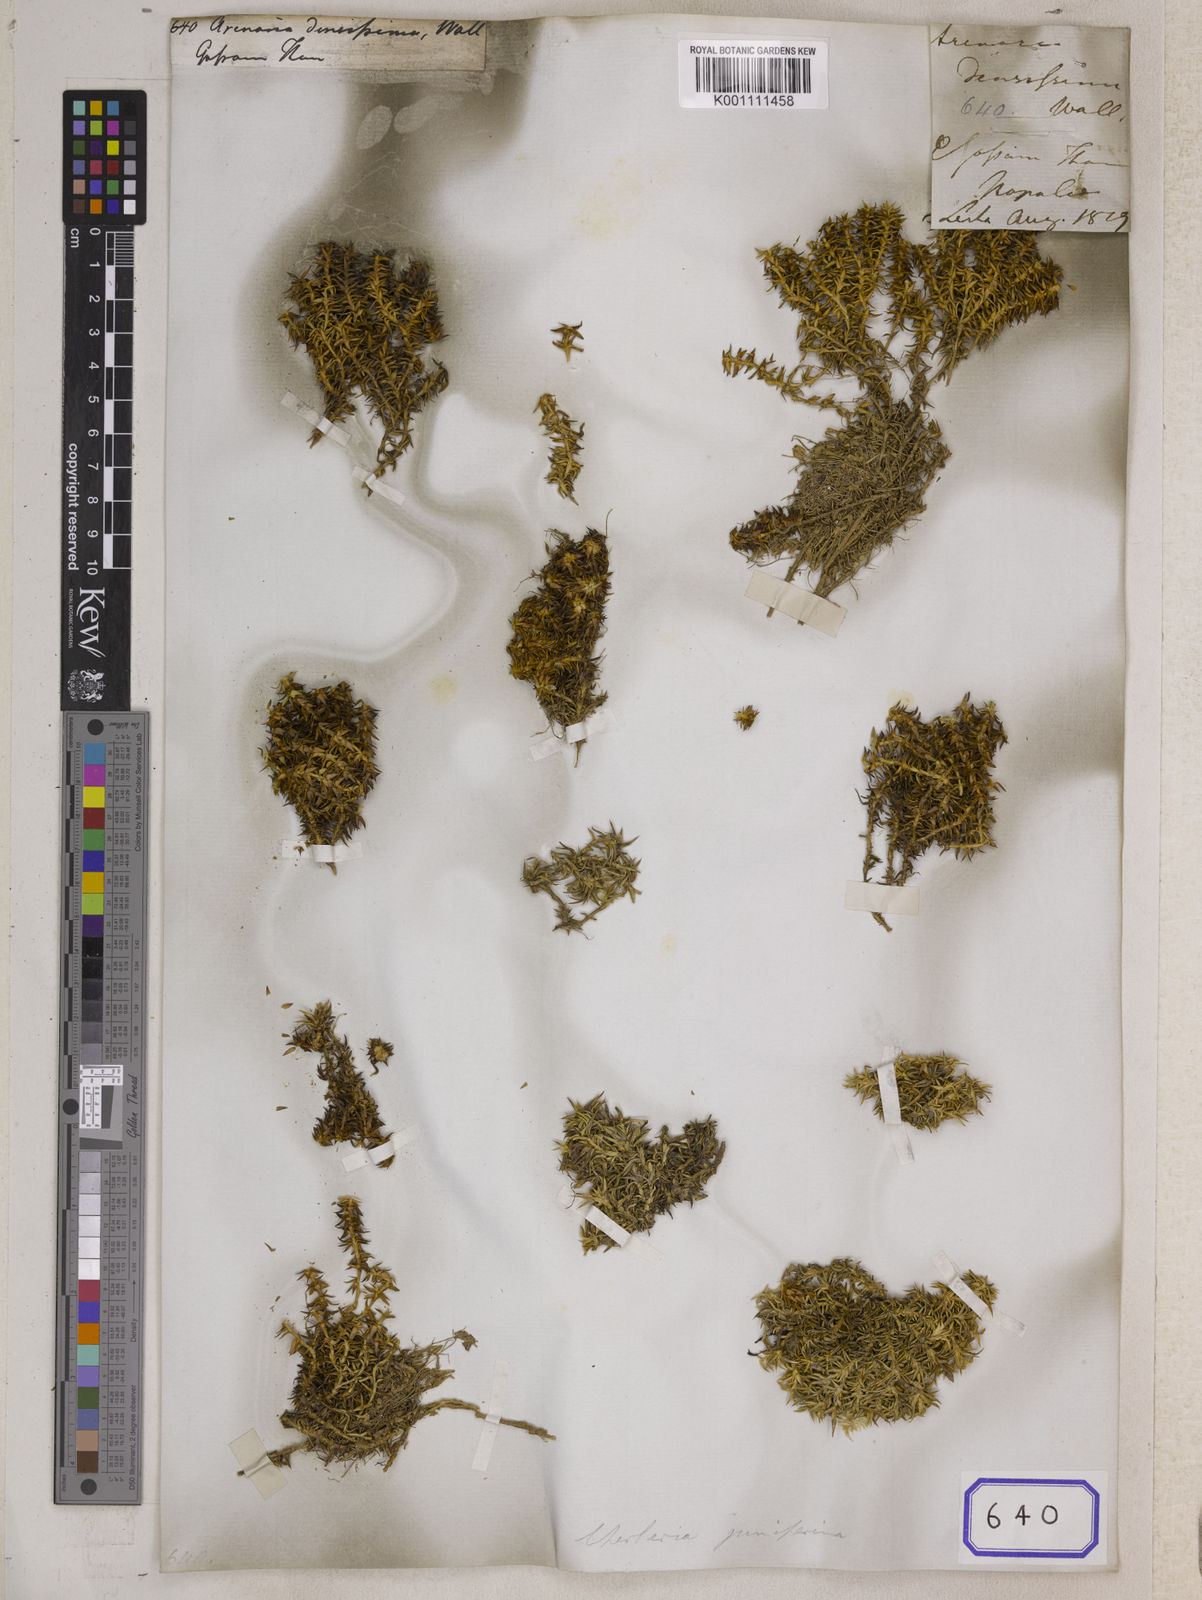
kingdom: Plantae
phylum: Tracheophyta
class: Magnoliopsida
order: Caryophyllales
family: Caryophyllaceae
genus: Arenaria
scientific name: Arenaria
